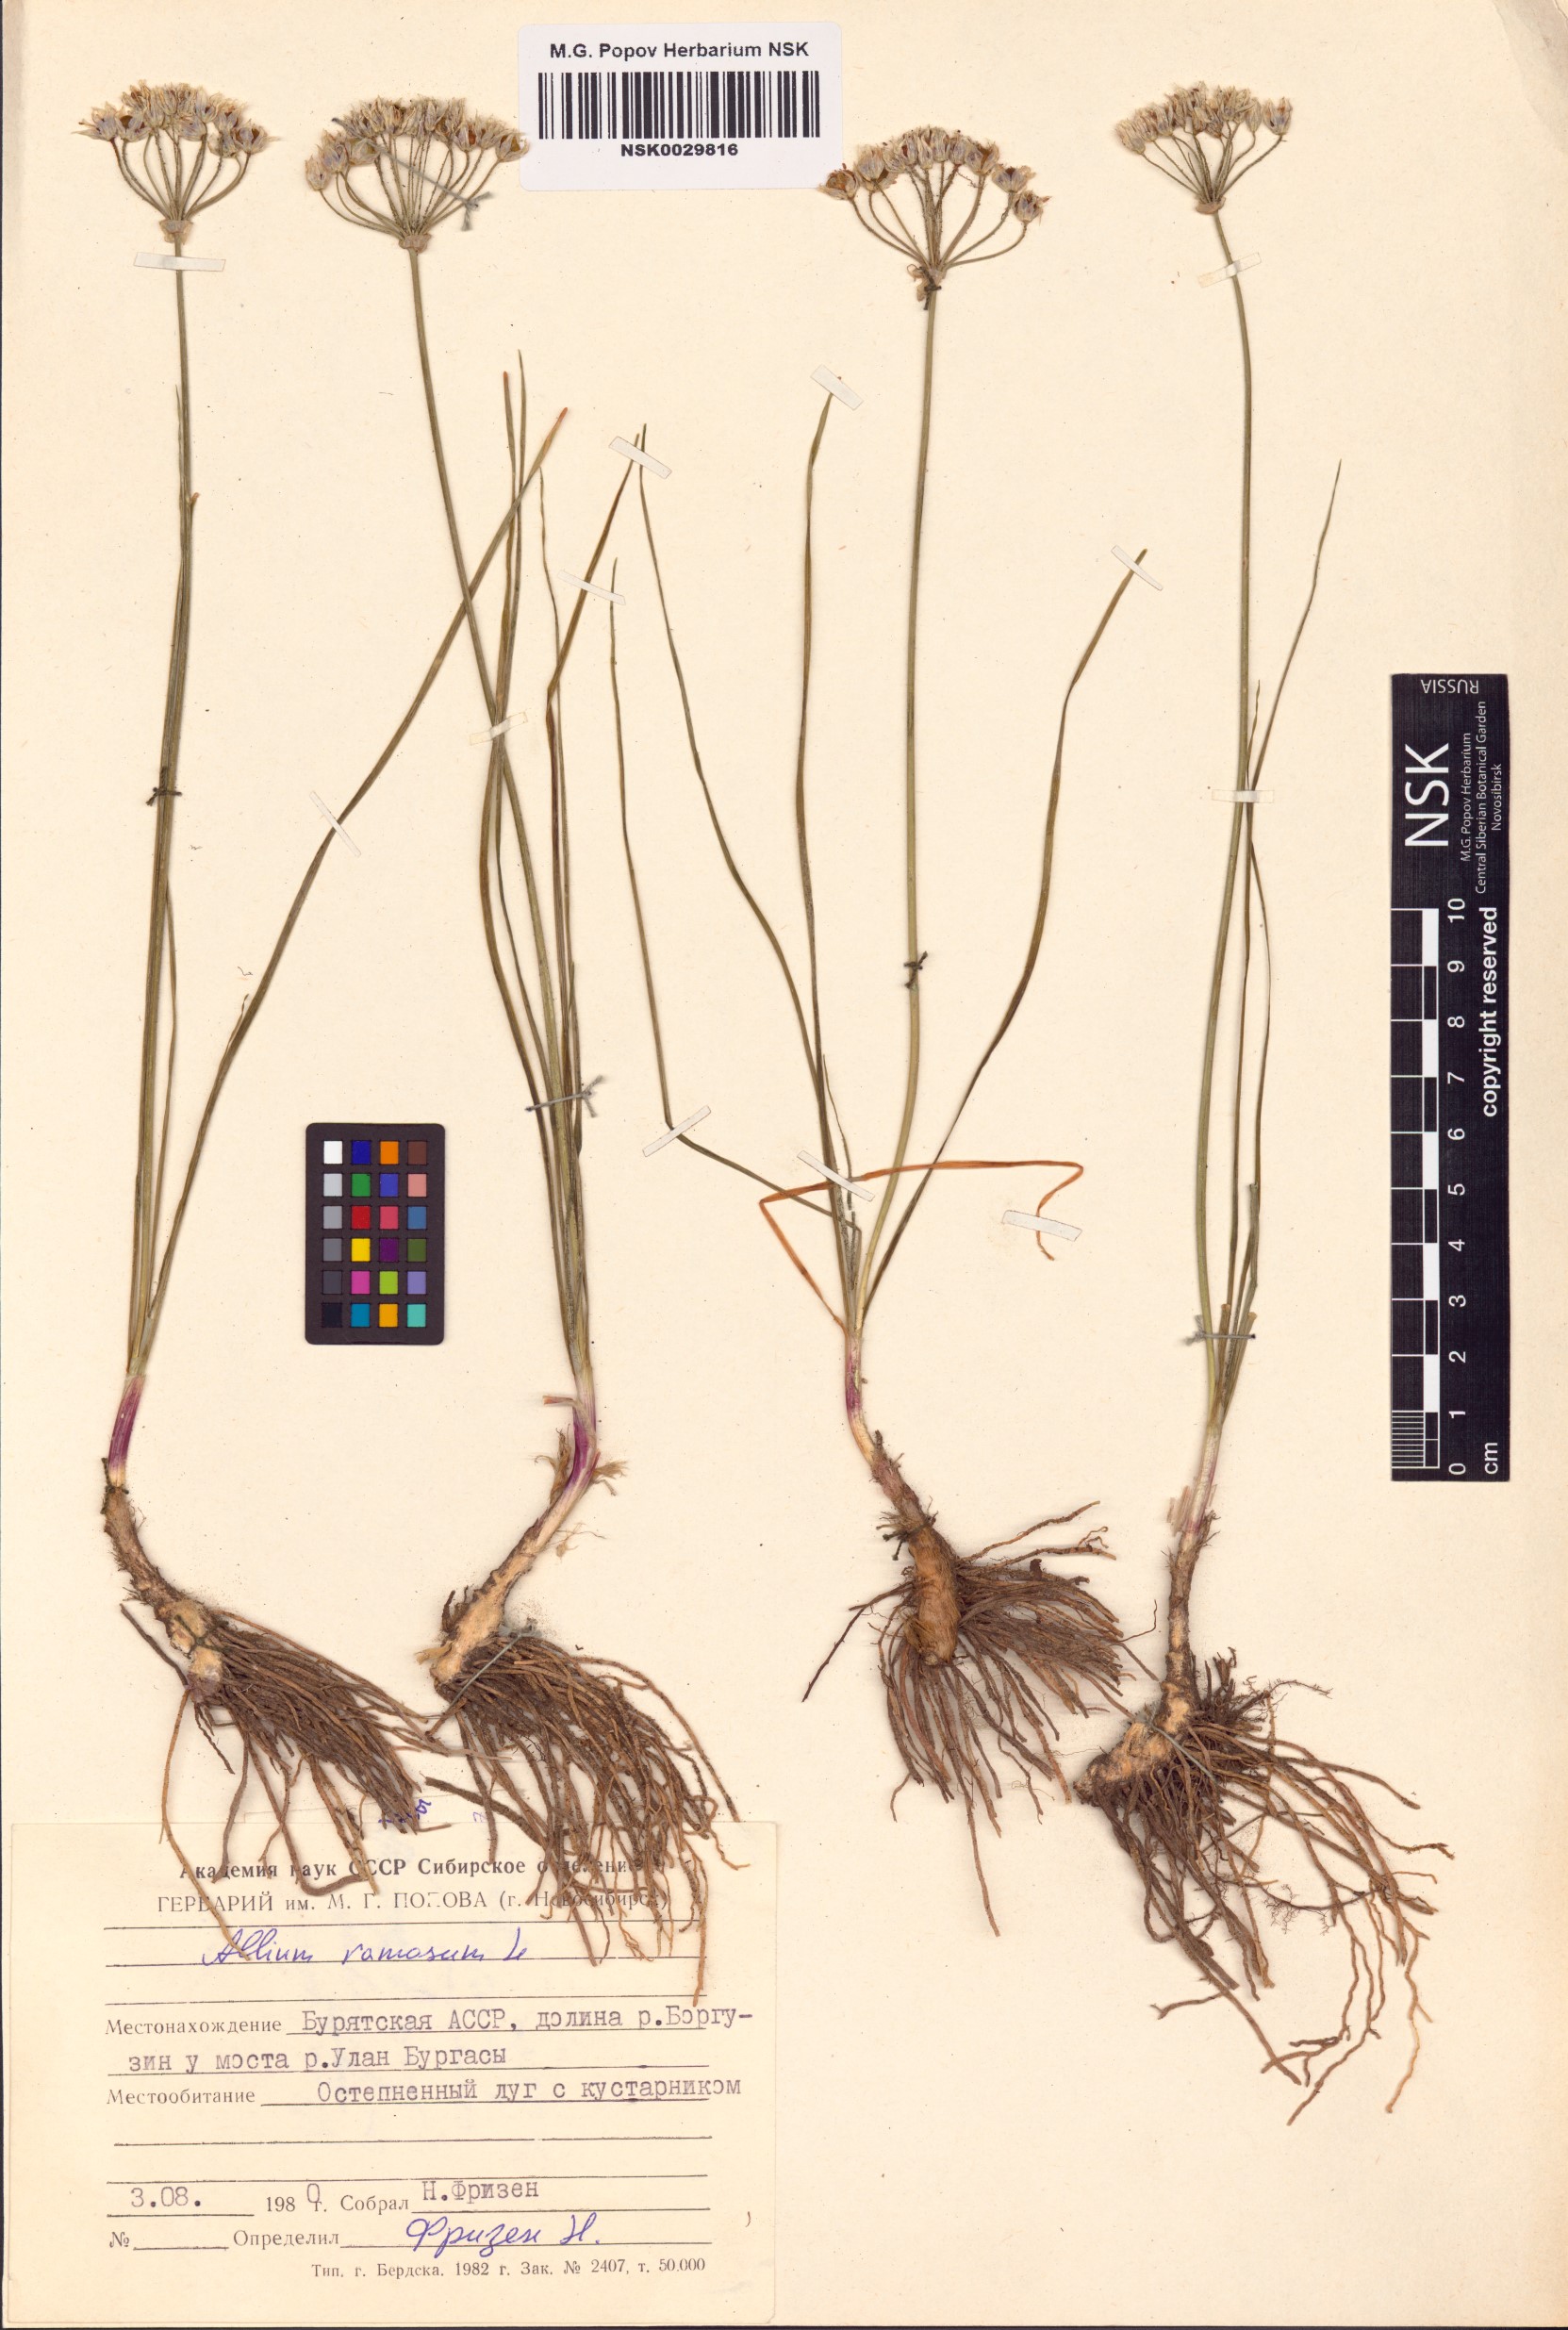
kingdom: Plantae
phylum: Tracheophyta
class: Liliopsida
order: Asparagales
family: Amaryllidaceae
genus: Allium
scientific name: Allium ramosum
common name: Fragrant garlic
